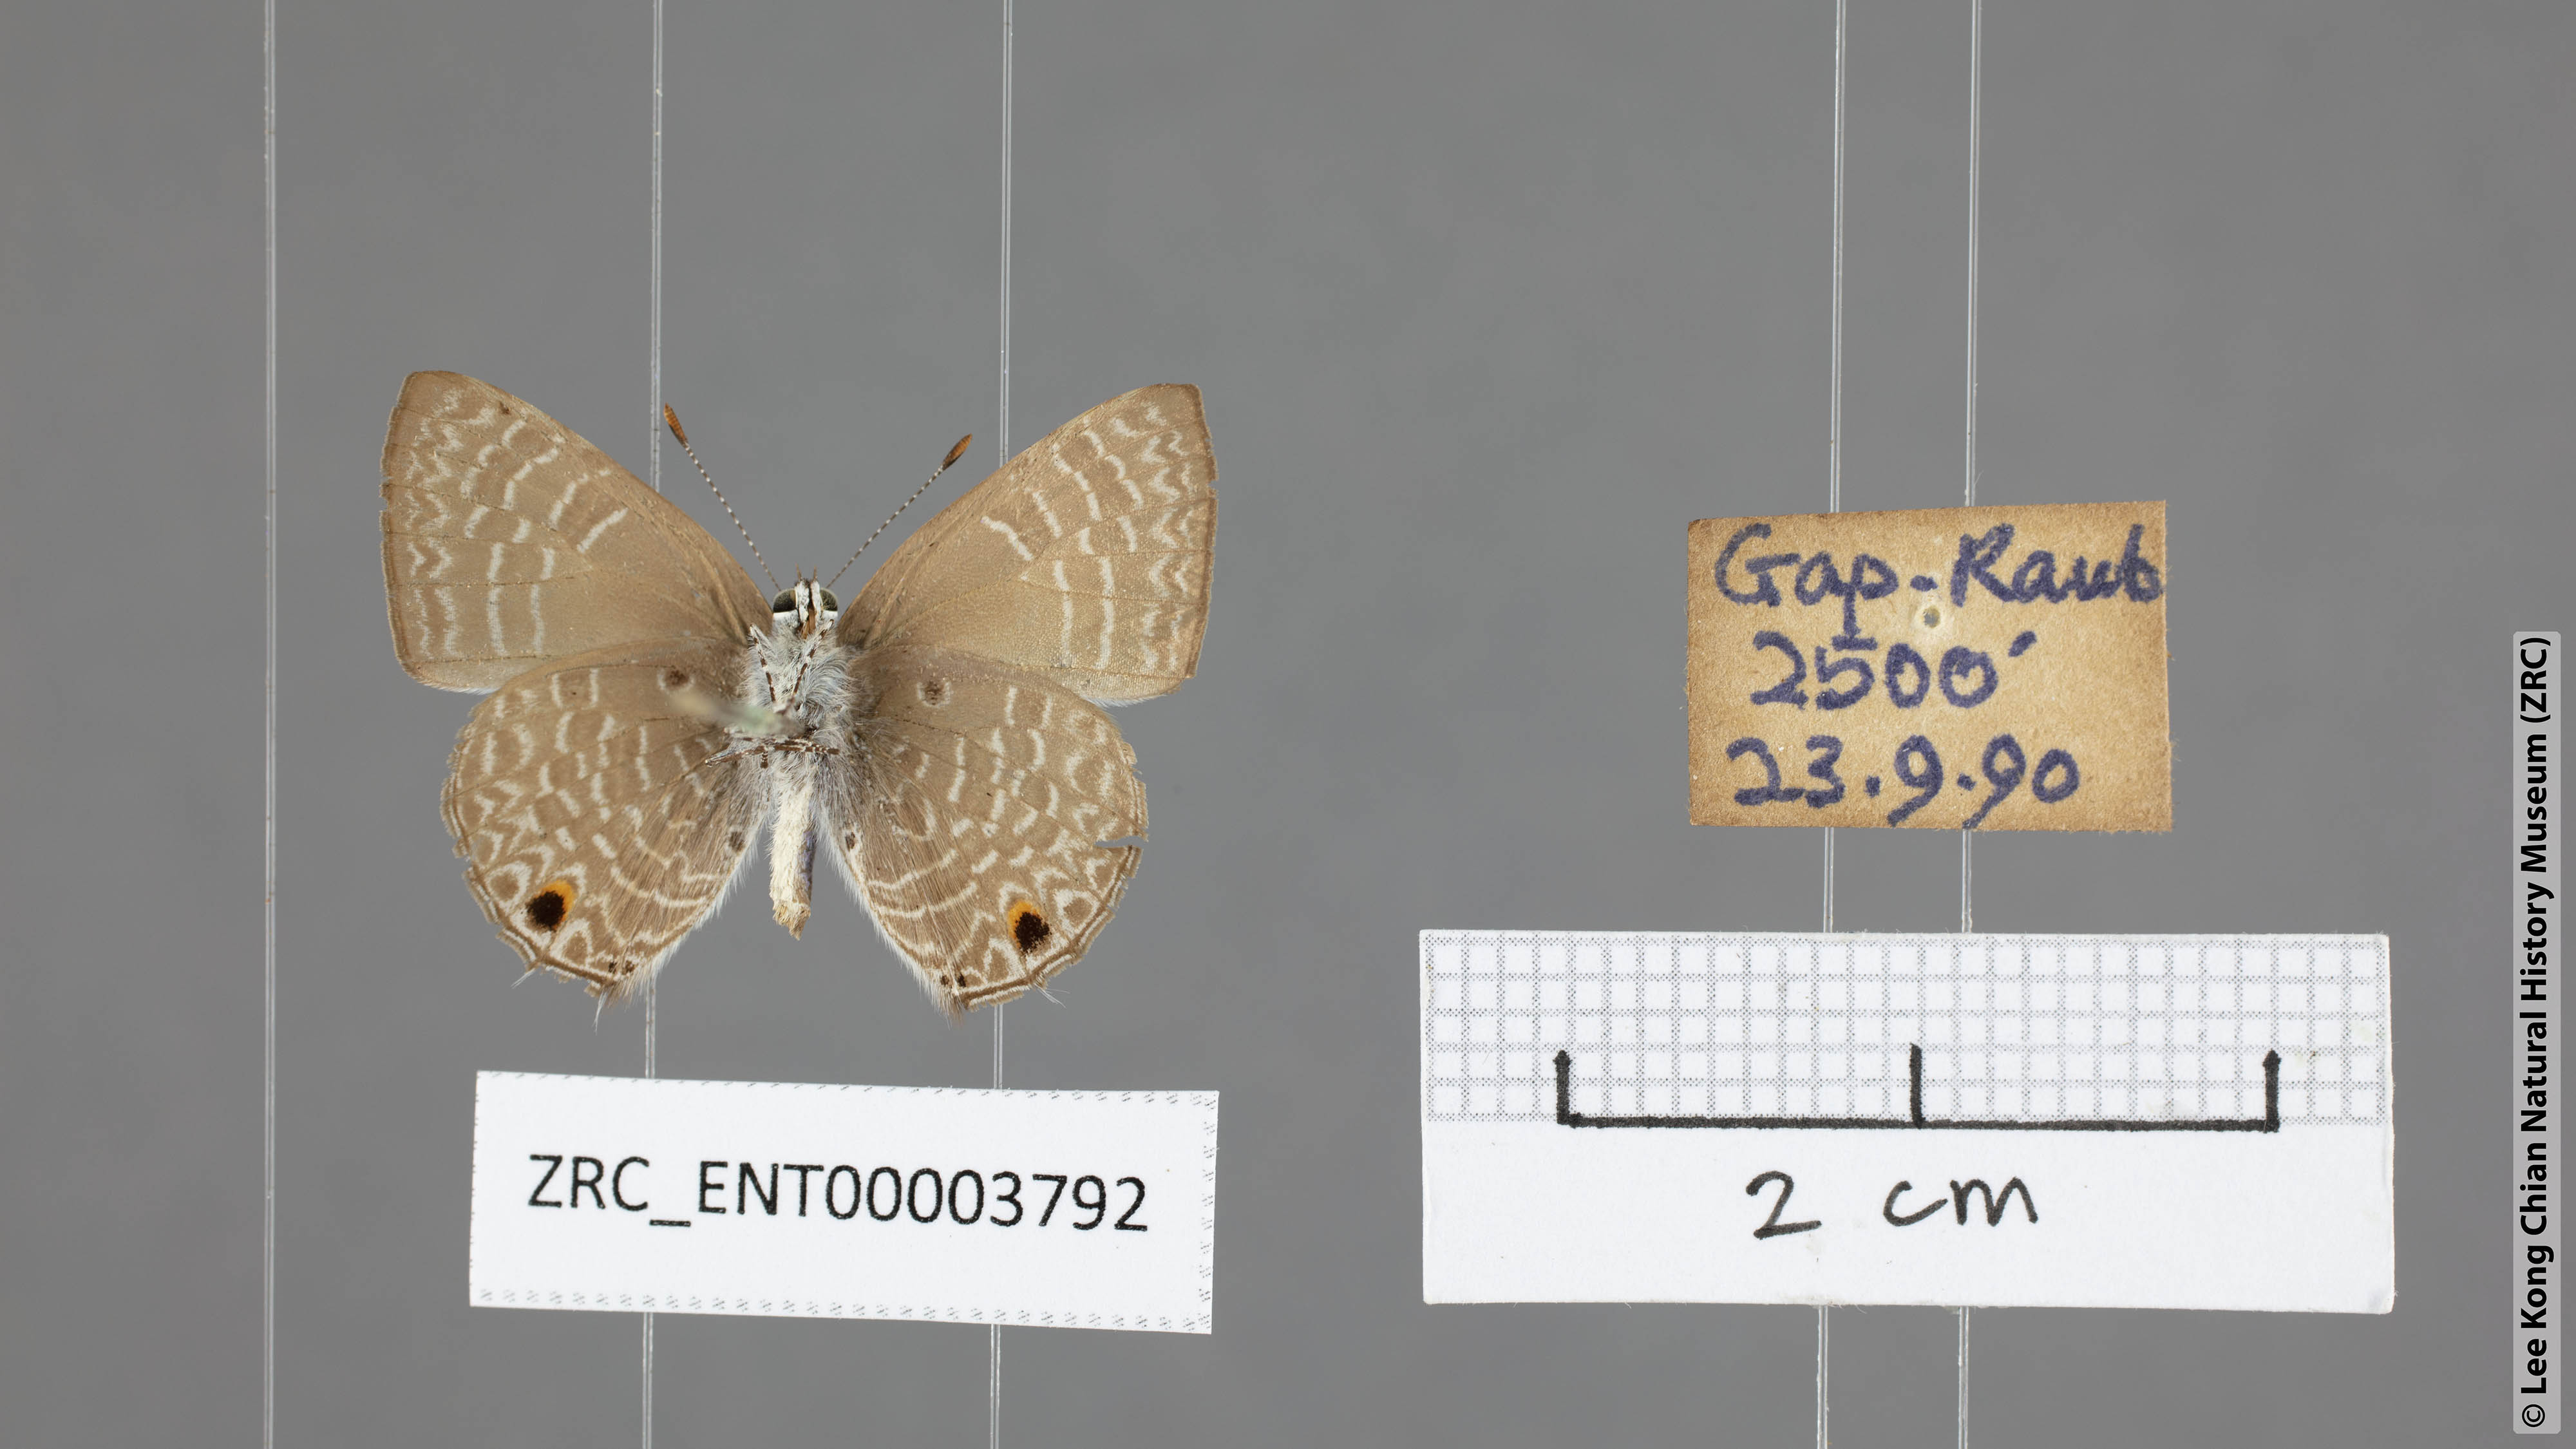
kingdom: Animalia
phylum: Arthropoda
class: Insecta
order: Lepidoptera
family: Lycaenidae
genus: Anthene
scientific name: Anthene lycaenina
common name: Pointed ciliate blue
